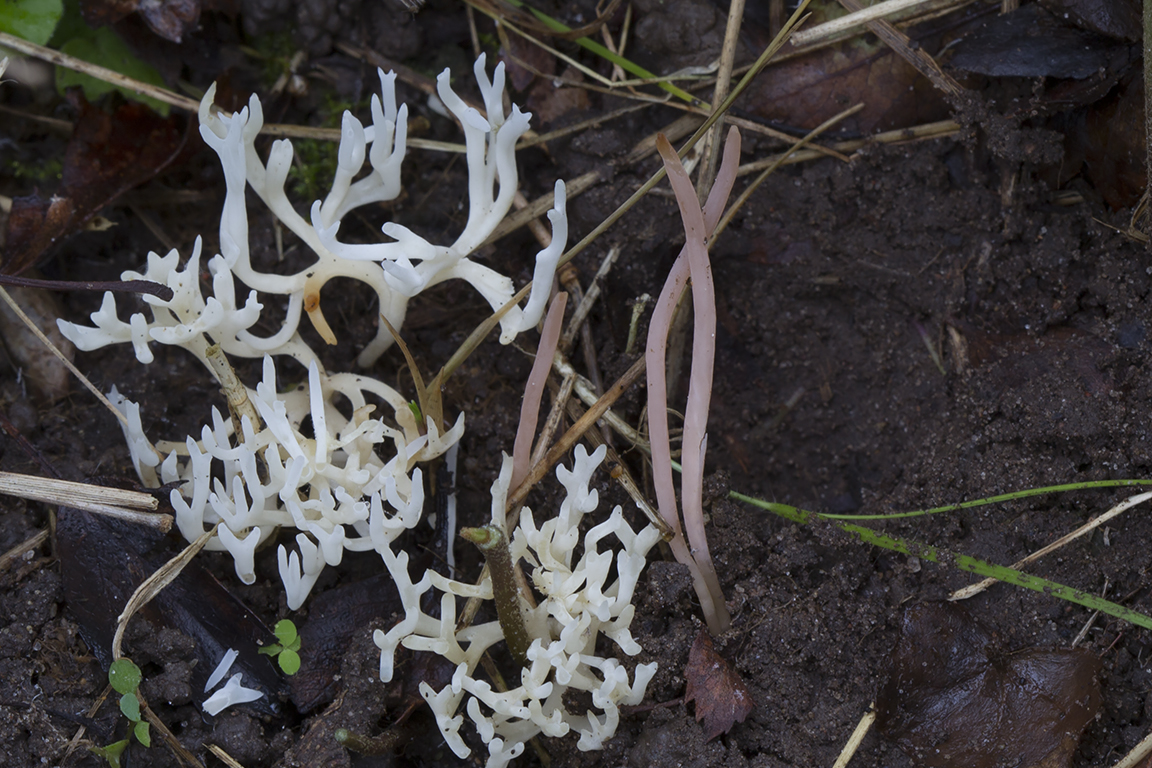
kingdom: Fungi
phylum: Basidiomycota
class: Agaricomycetes
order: Agaricales
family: Clavariaceae
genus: Clavaria
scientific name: Clavaria incarnata
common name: kødrød køllesvamp
